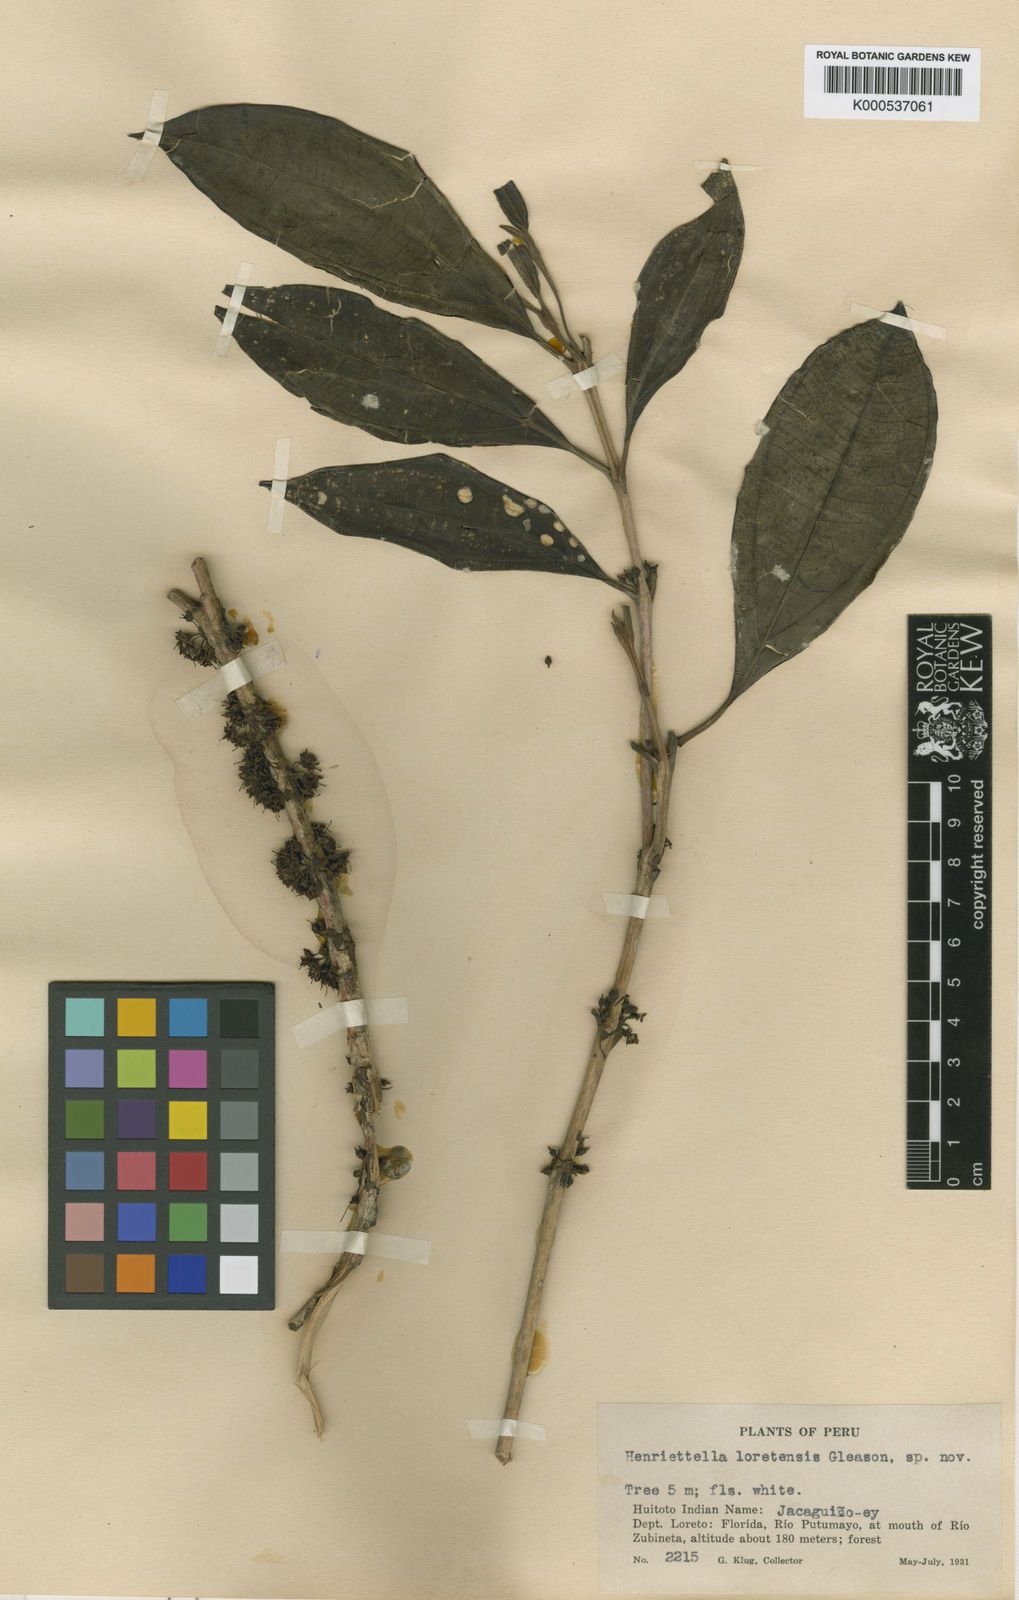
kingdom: Plantae
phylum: Tracheophyta
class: Magnoliopsida
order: Myrtales
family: Melastomataceae
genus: Henriettea
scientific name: Henriettea loretensis
